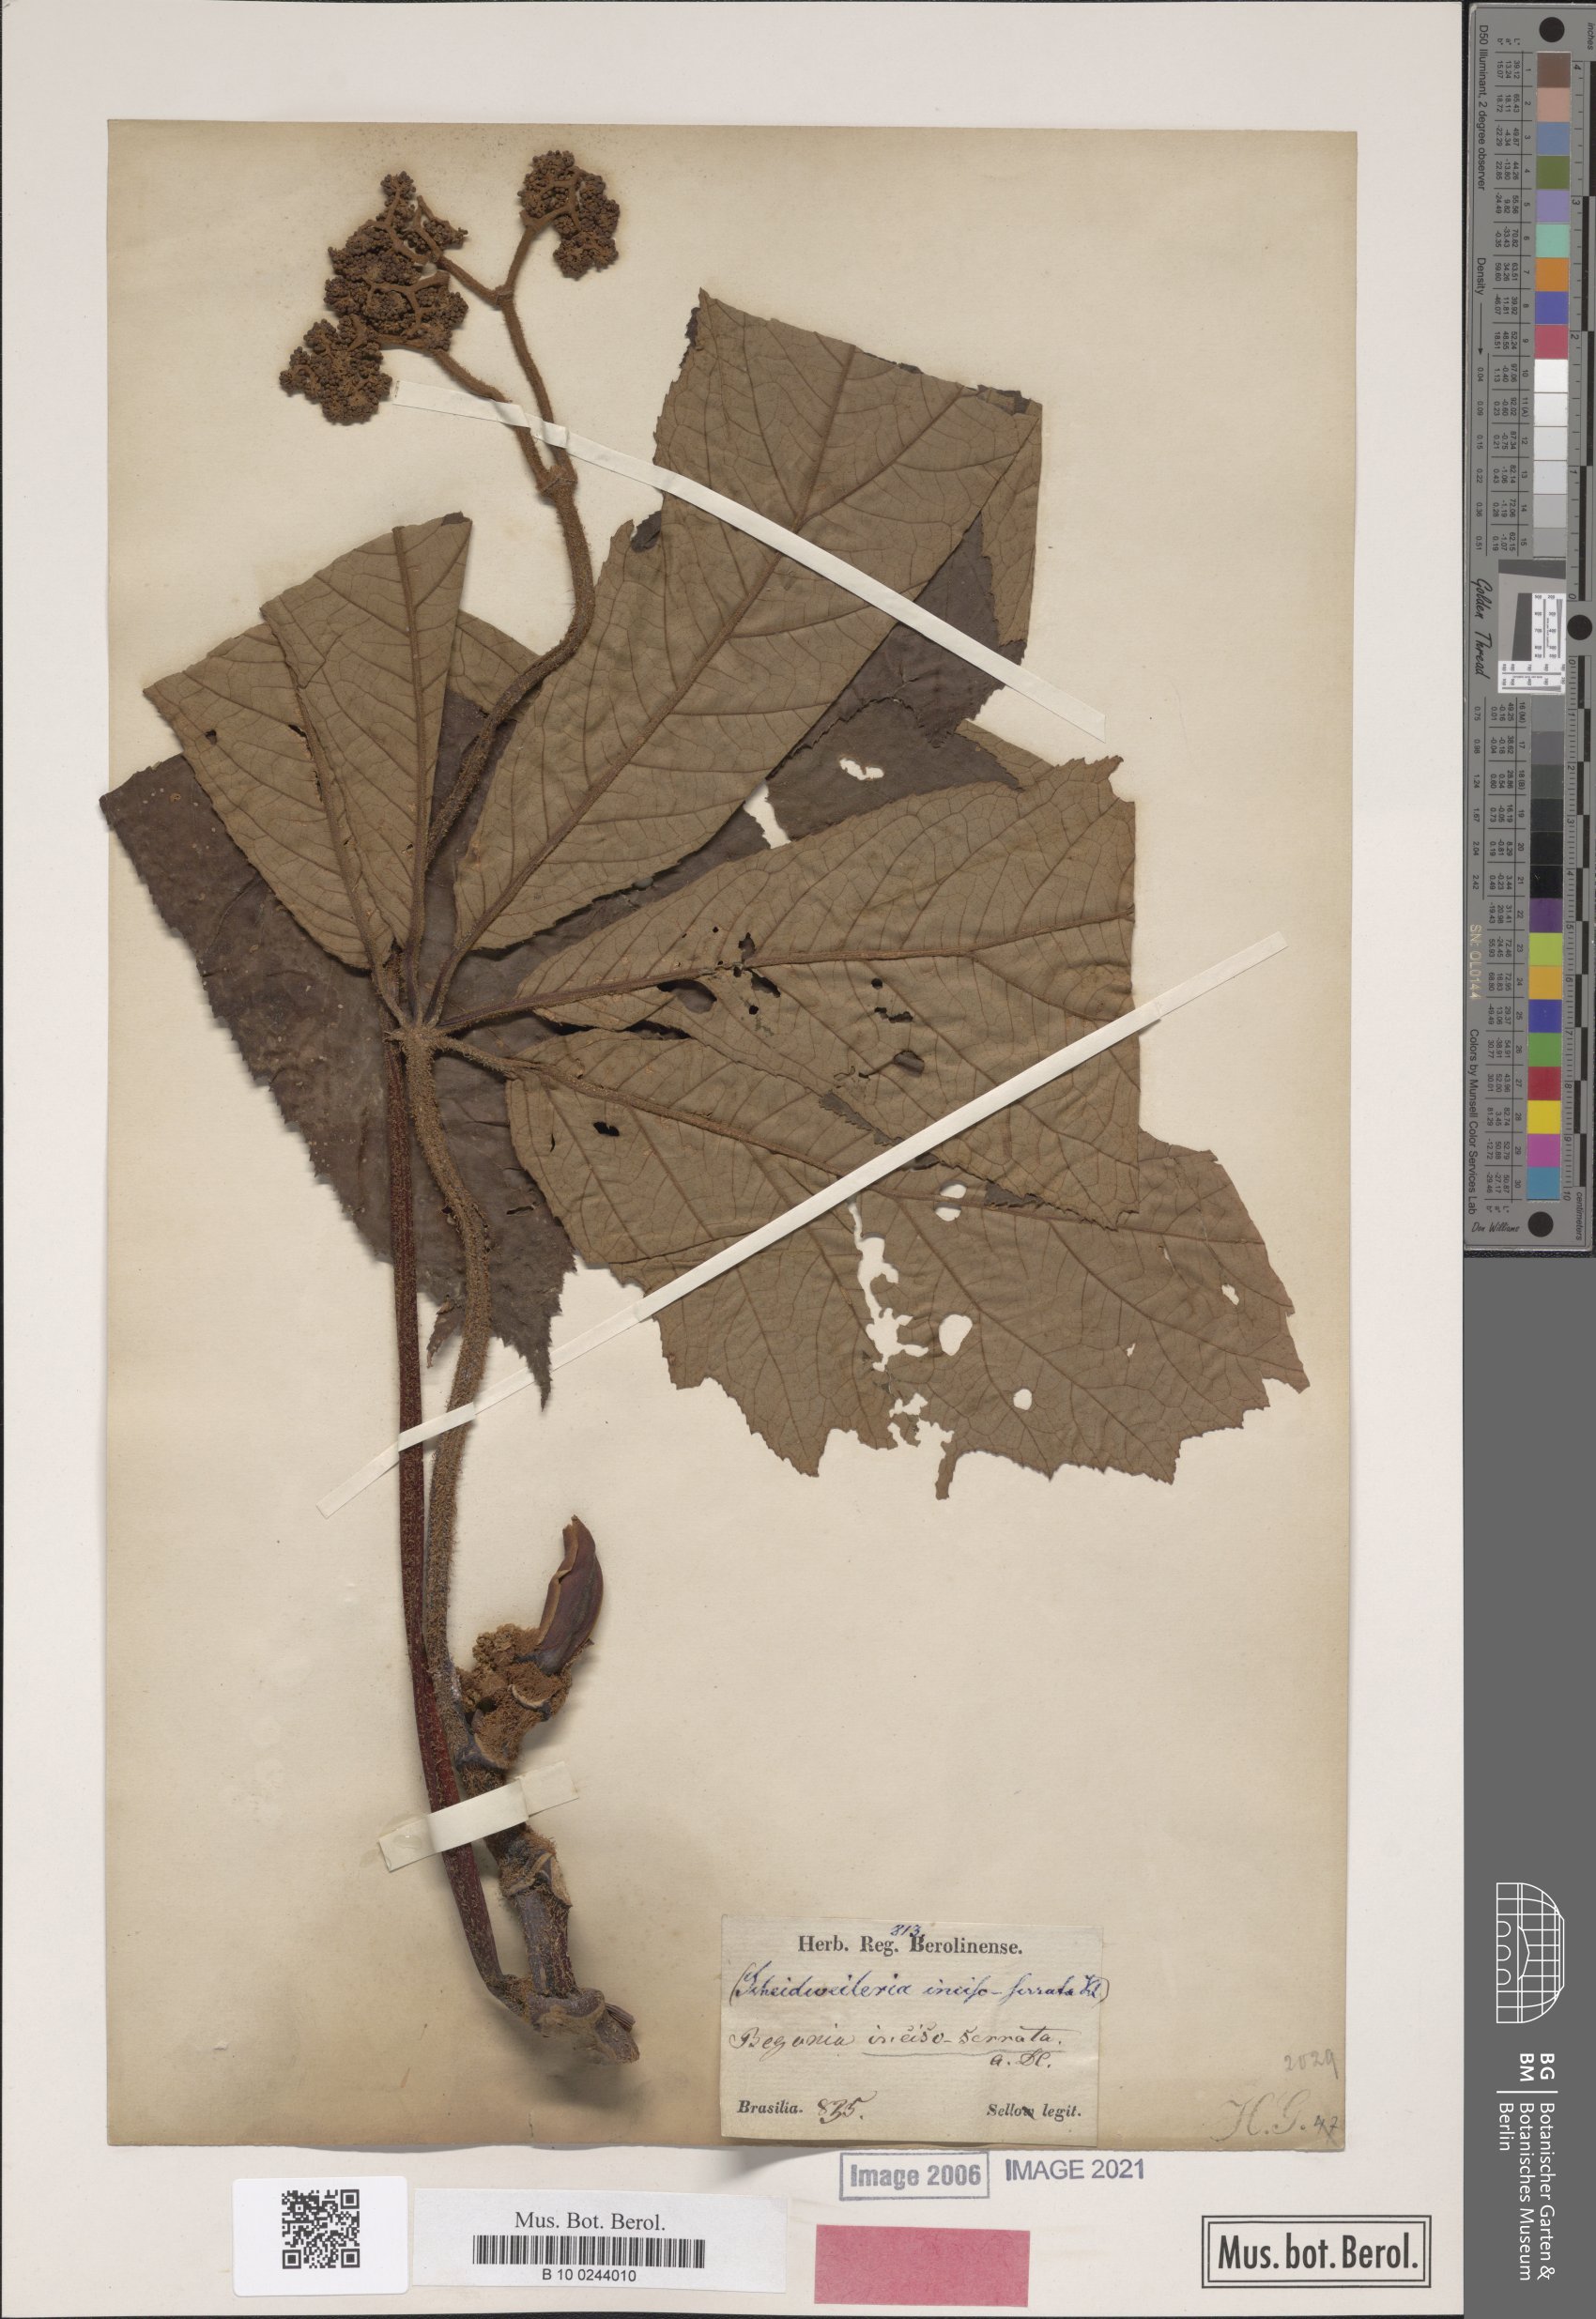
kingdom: Plantae
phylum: Tracheophyta
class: Magnoliopsida
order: Cucurbitales
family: Begoniaceae
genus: Begonia
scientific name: Begonia incisoserrata
